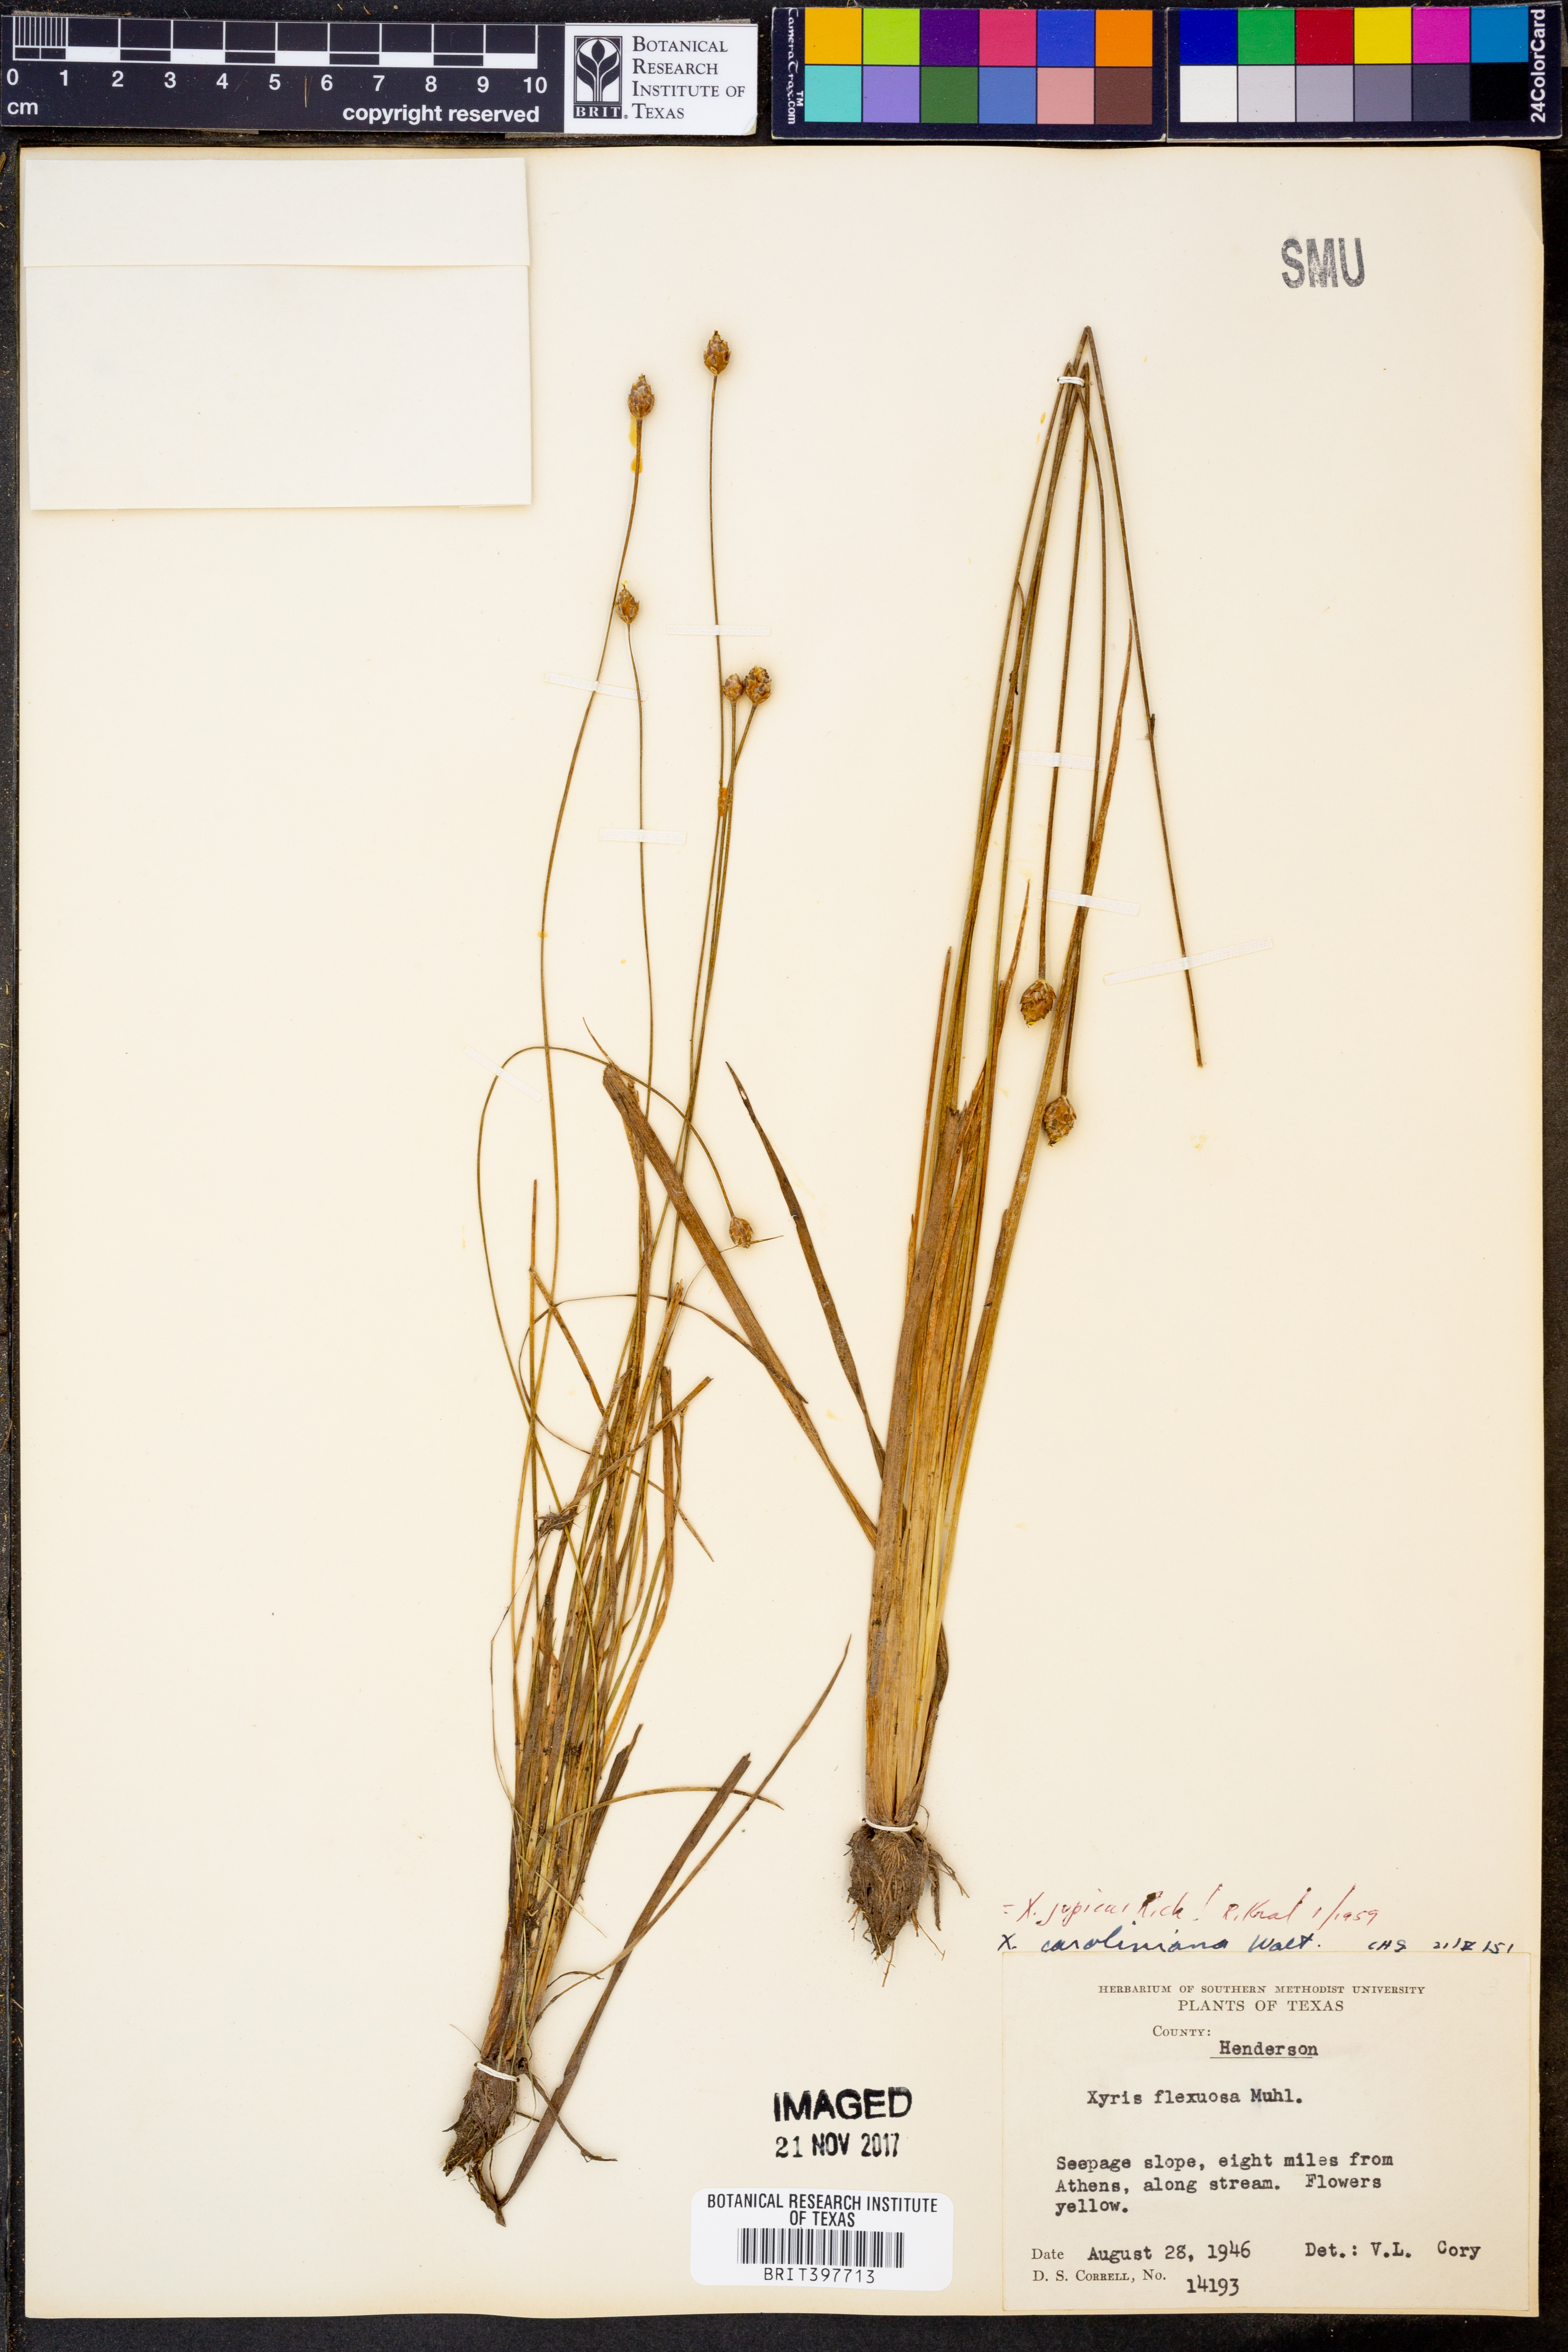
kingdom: Plantae
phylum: Tracheophyta
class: Liliopsida
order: Poales
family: Xyridaceae
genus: Xyris
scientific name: Xyris jupicai
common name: Richard's yelloweyed grass
